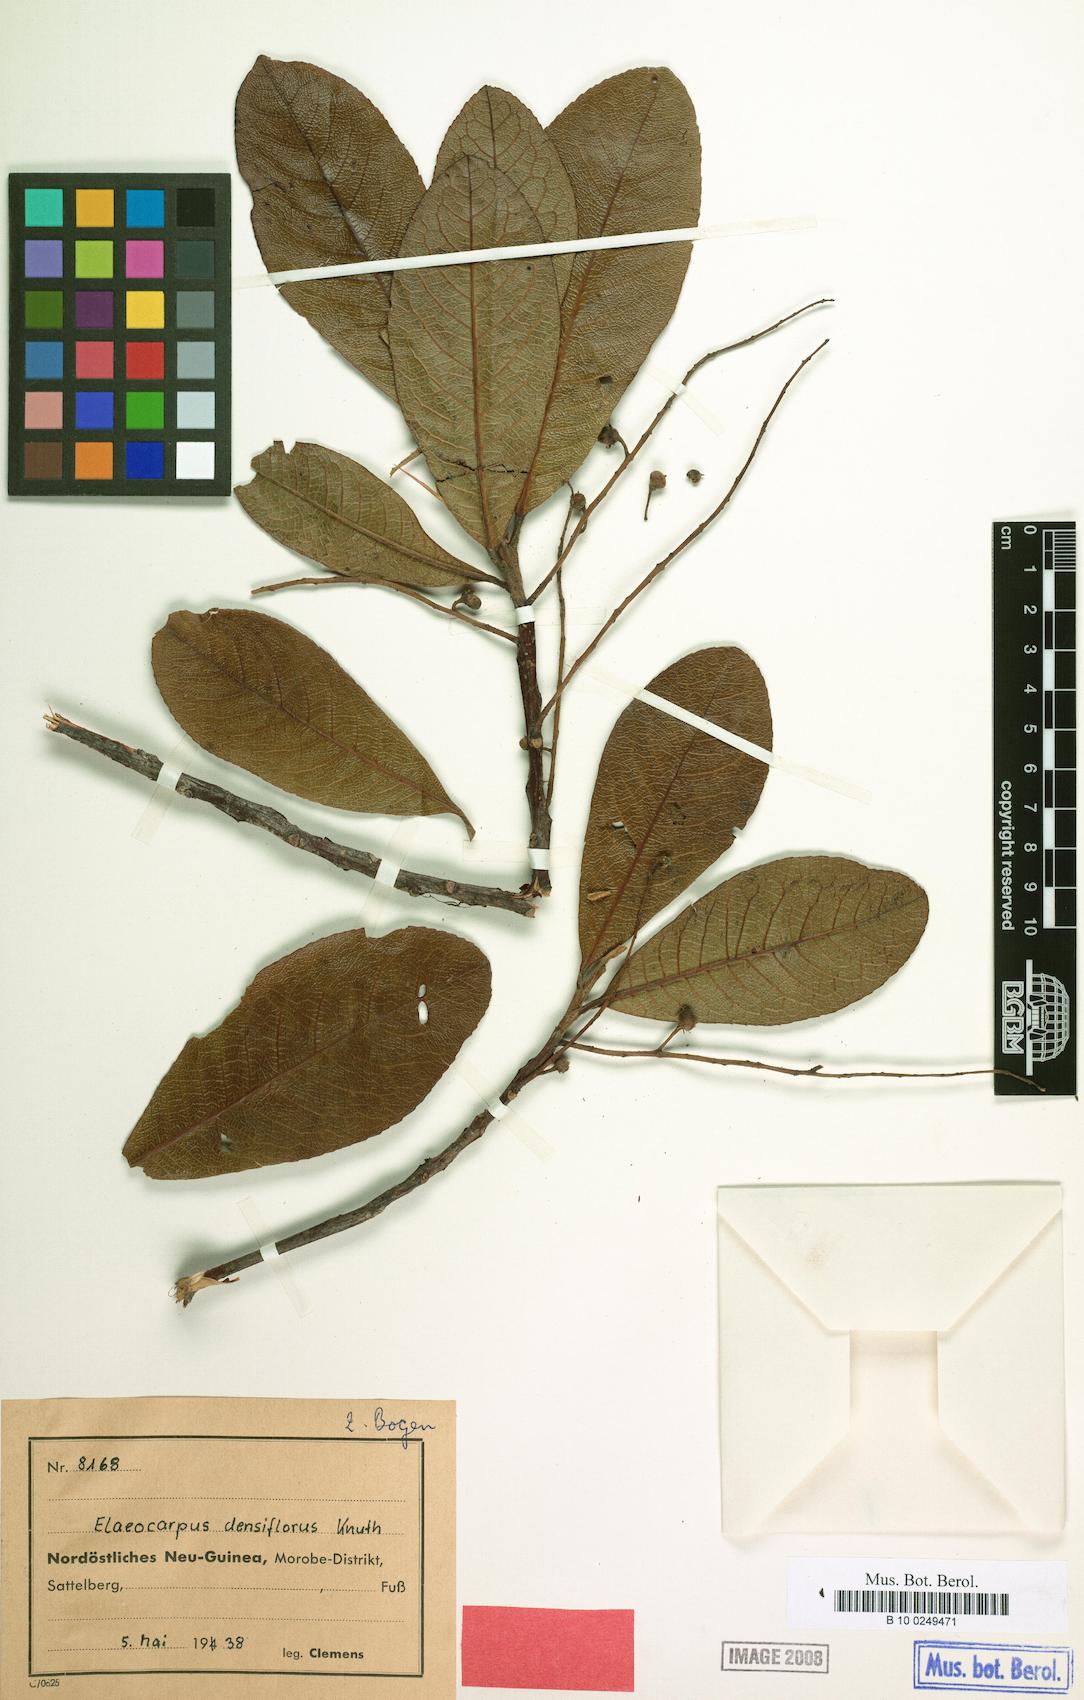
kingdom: Plantae
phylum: Tracheophyta
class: Magnoliopsida
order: Oxalidales
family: Elaeocarpaceae
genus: Elaeocarpus
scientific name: Elaeocarpus densiflorus
